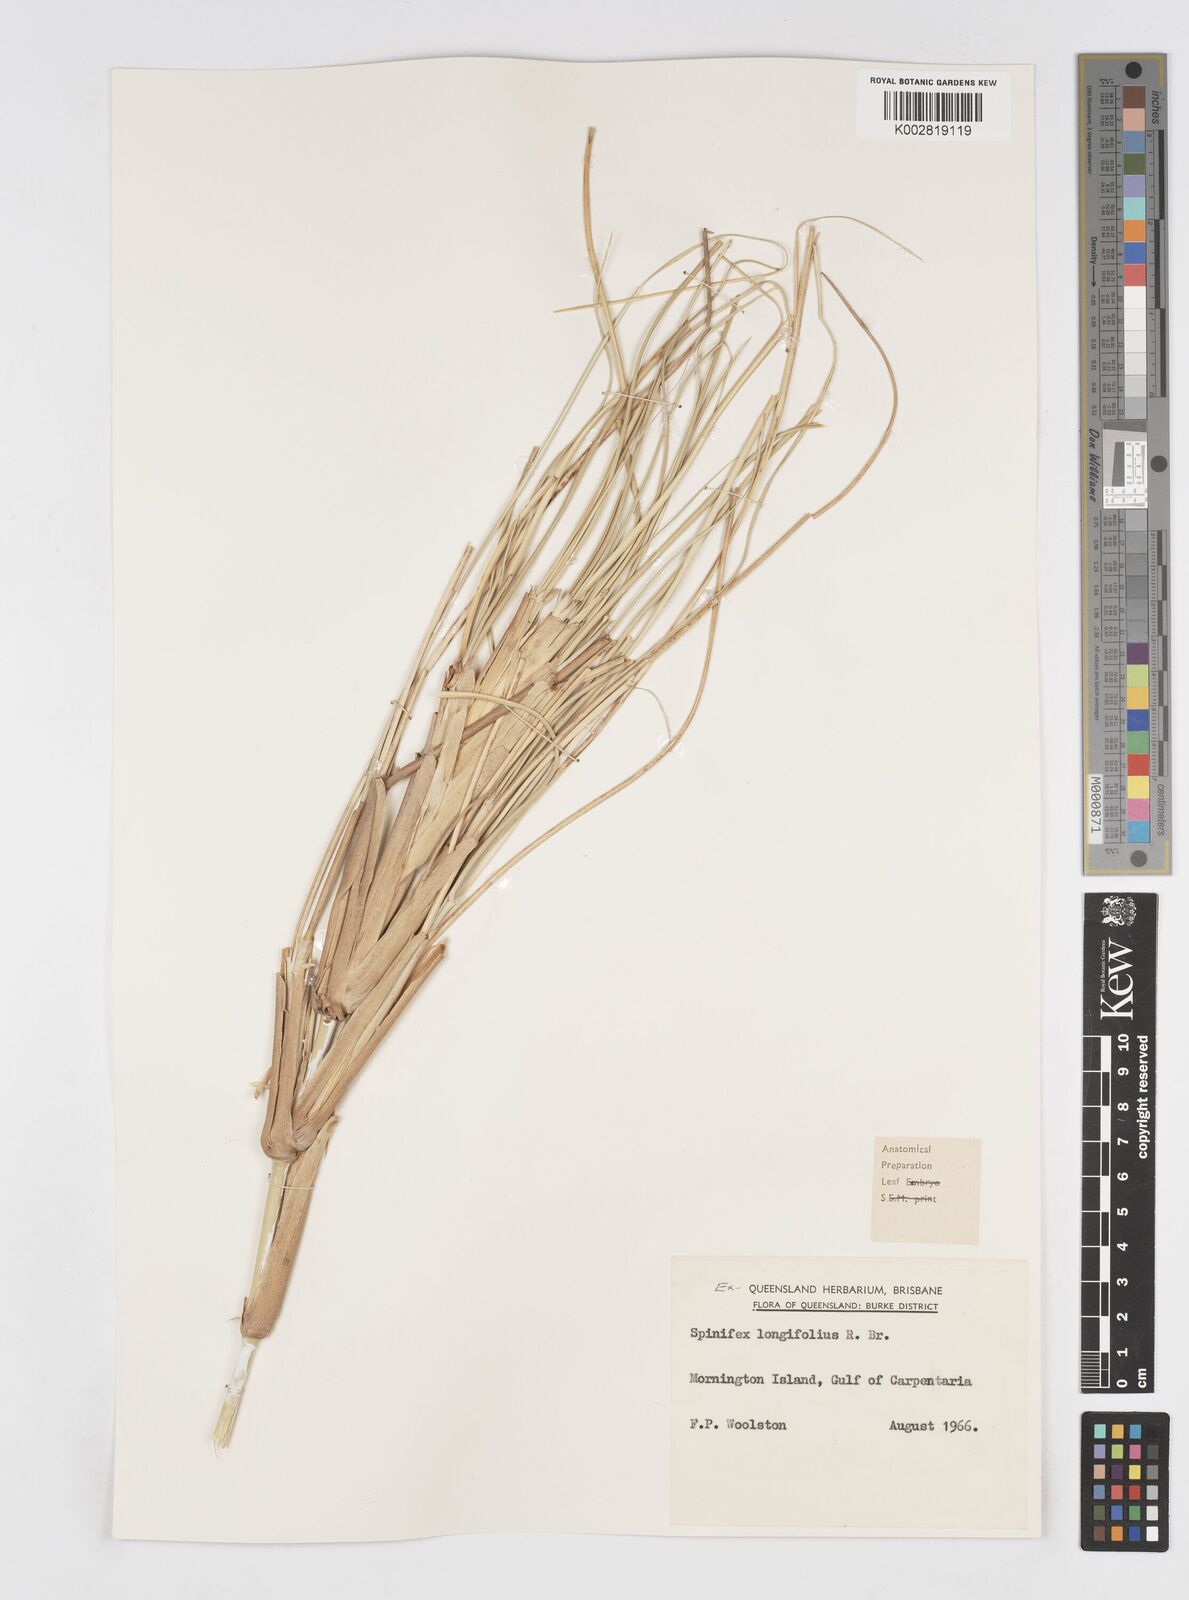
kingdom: Plantae
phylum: Tracheophyta
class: Liliopsida
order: Poales
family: Poaceae
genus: Spinifex
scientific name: Spinifex longifolius
